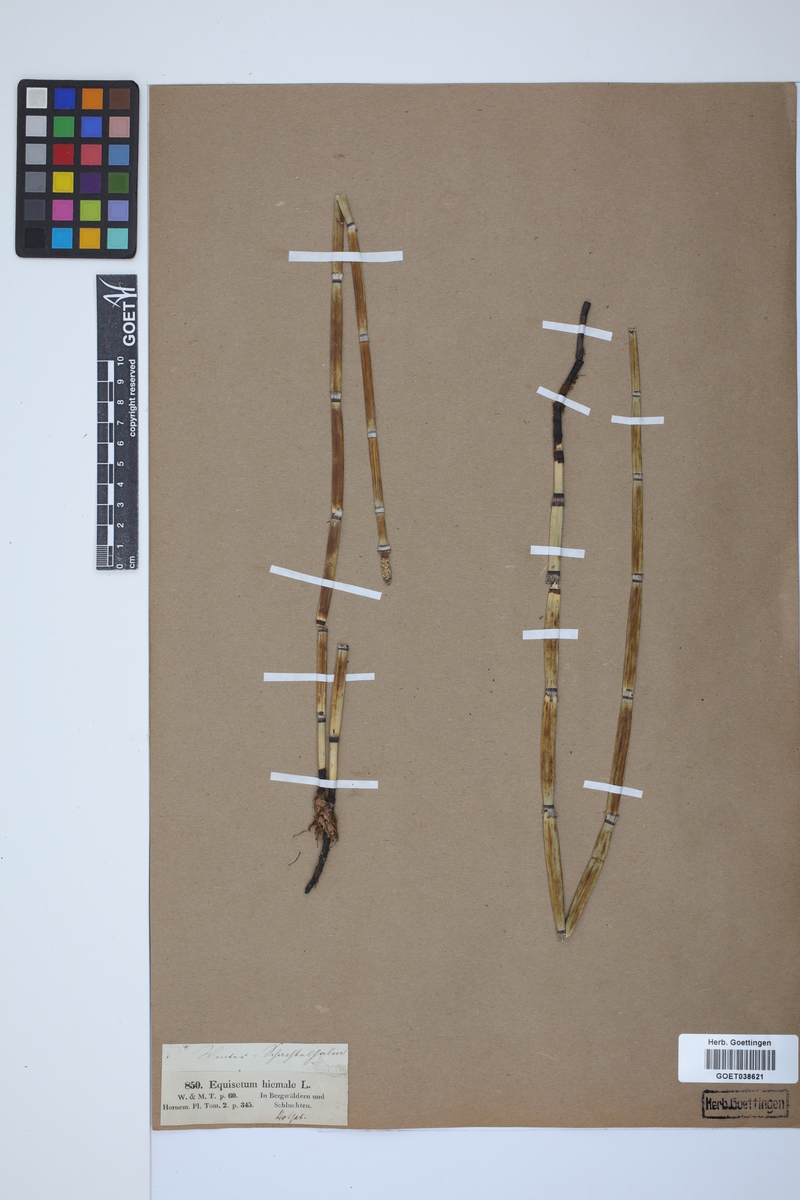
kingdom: Plantae
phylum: Tracheophyta
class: Polypodiopsida
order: Equisetales
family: Equisetaceae
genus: Equisetum
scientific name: Equisetum hyemale
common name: Rough horsetail
